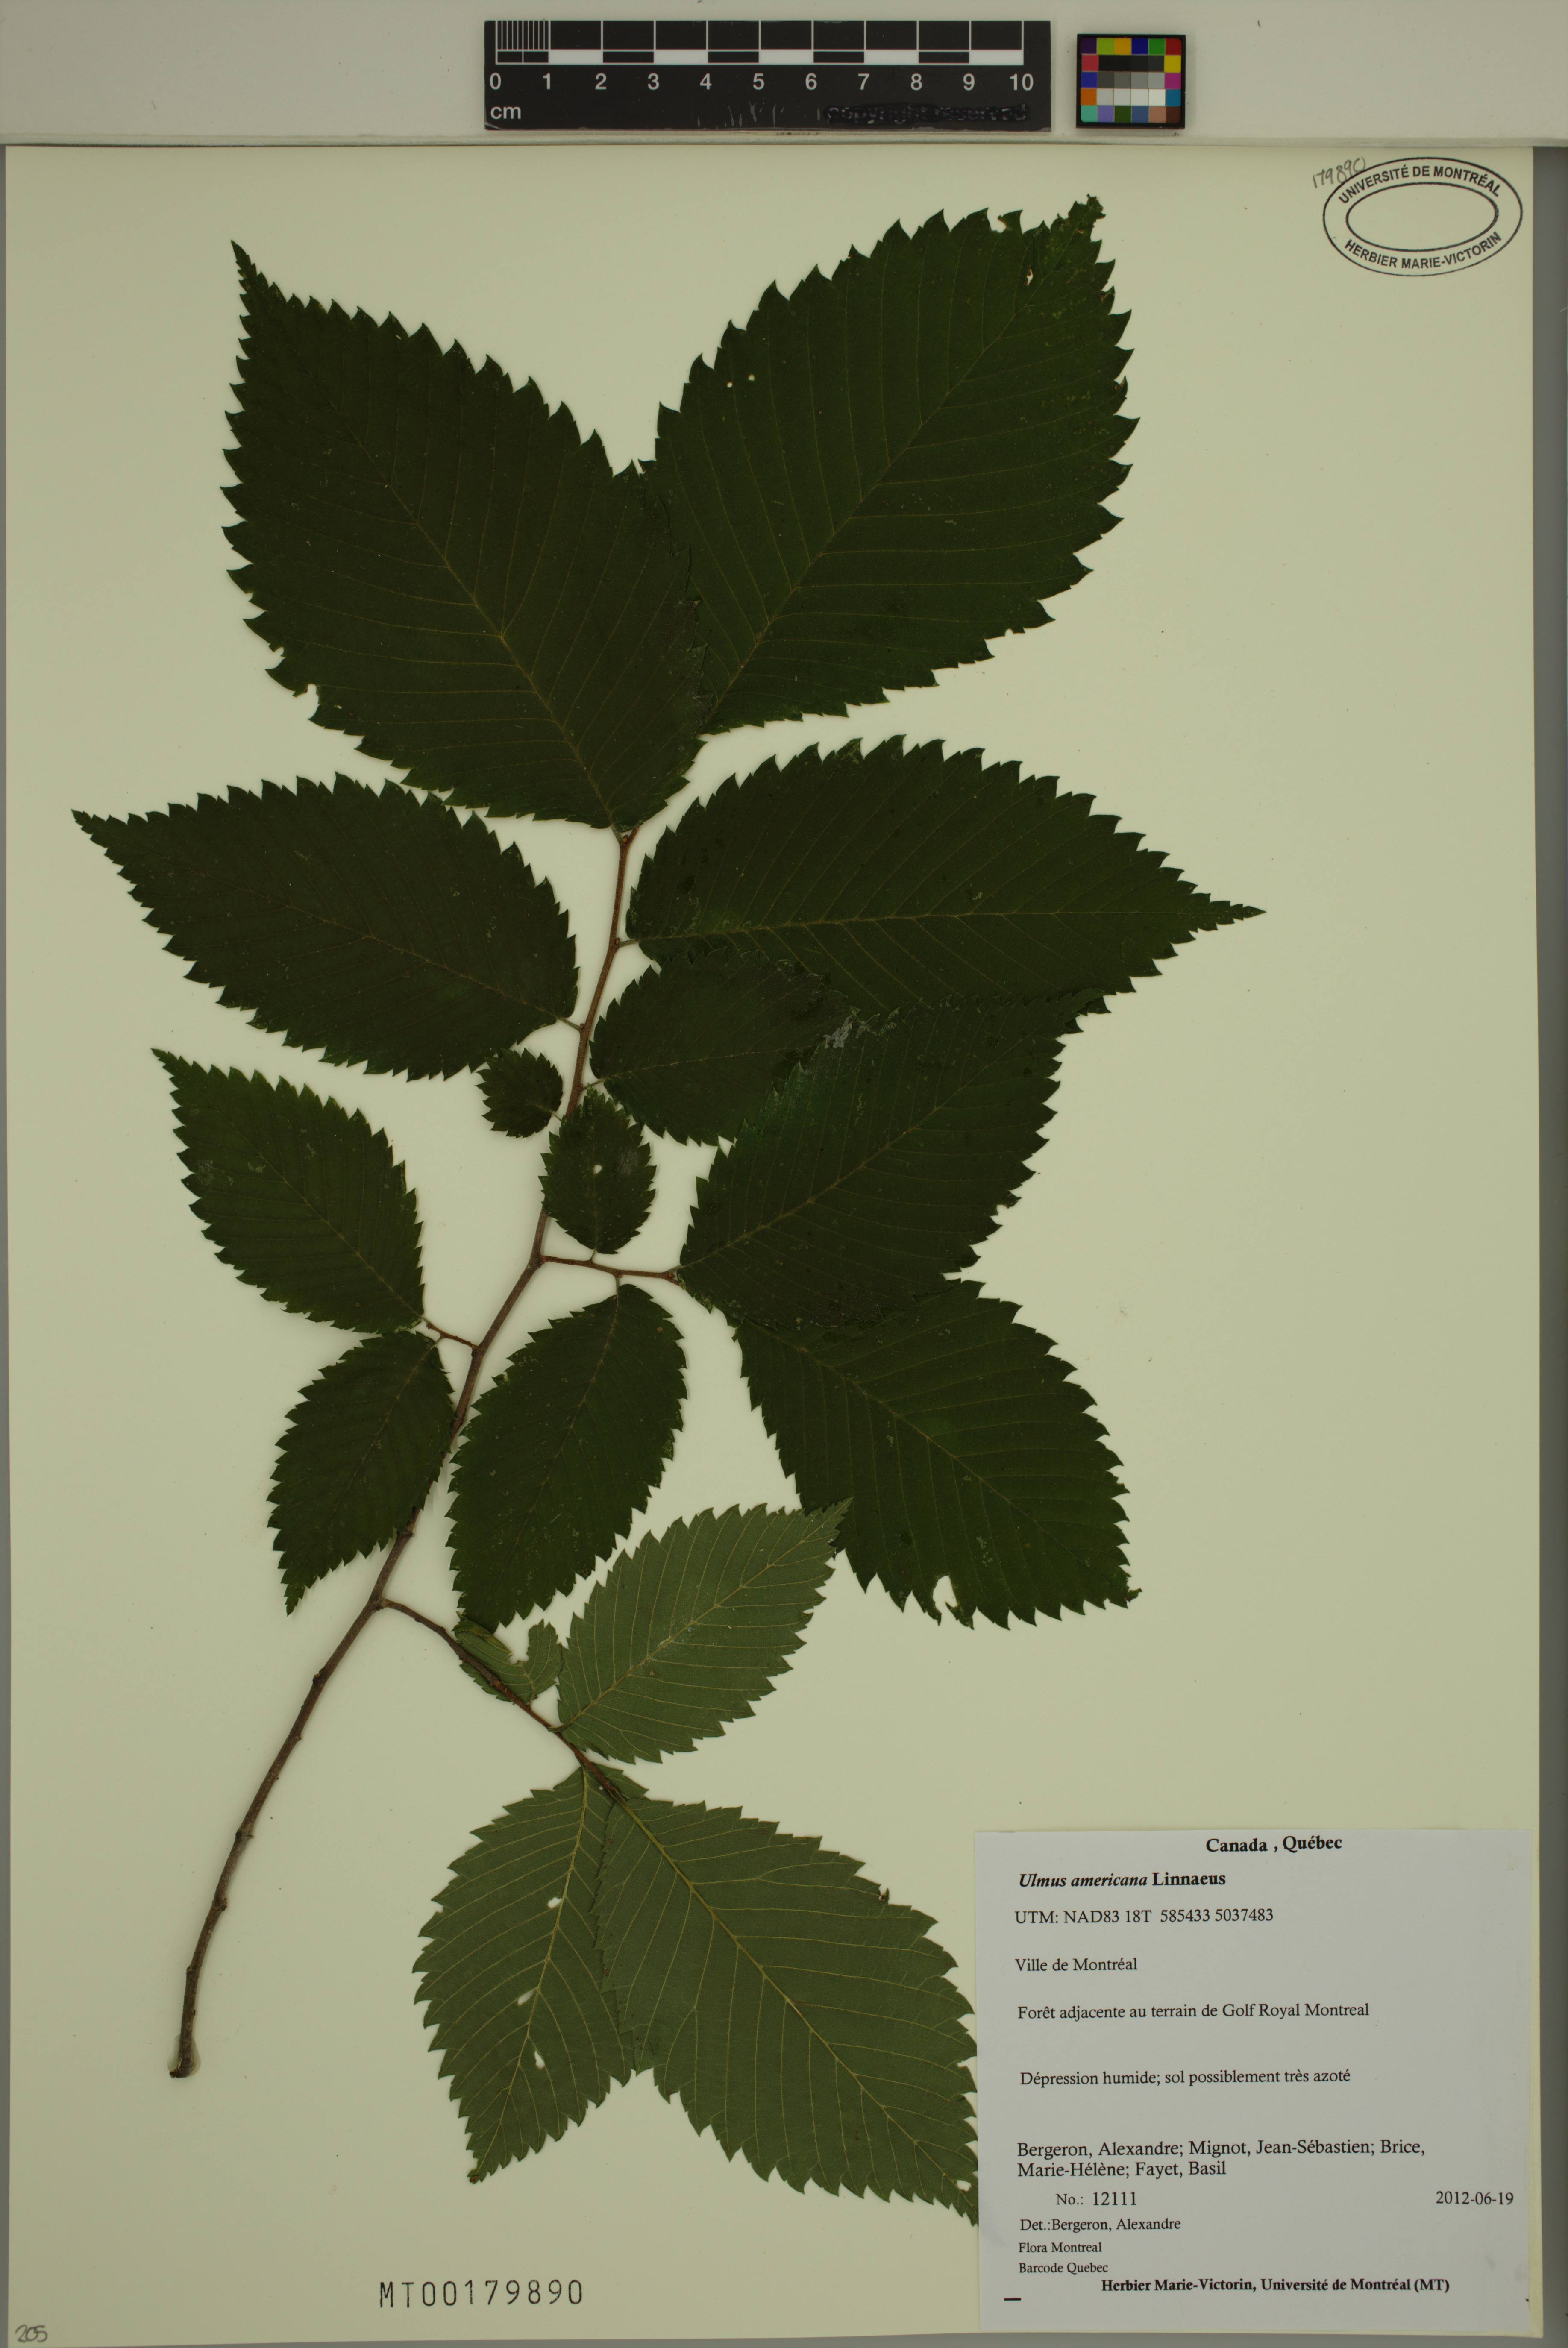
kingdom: Plantae
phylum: Tracheophyta
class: Magnoliopsida
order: Rosales
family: Ulmaceae
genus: Ulmus
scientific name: Ulmus americana
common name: American elm
